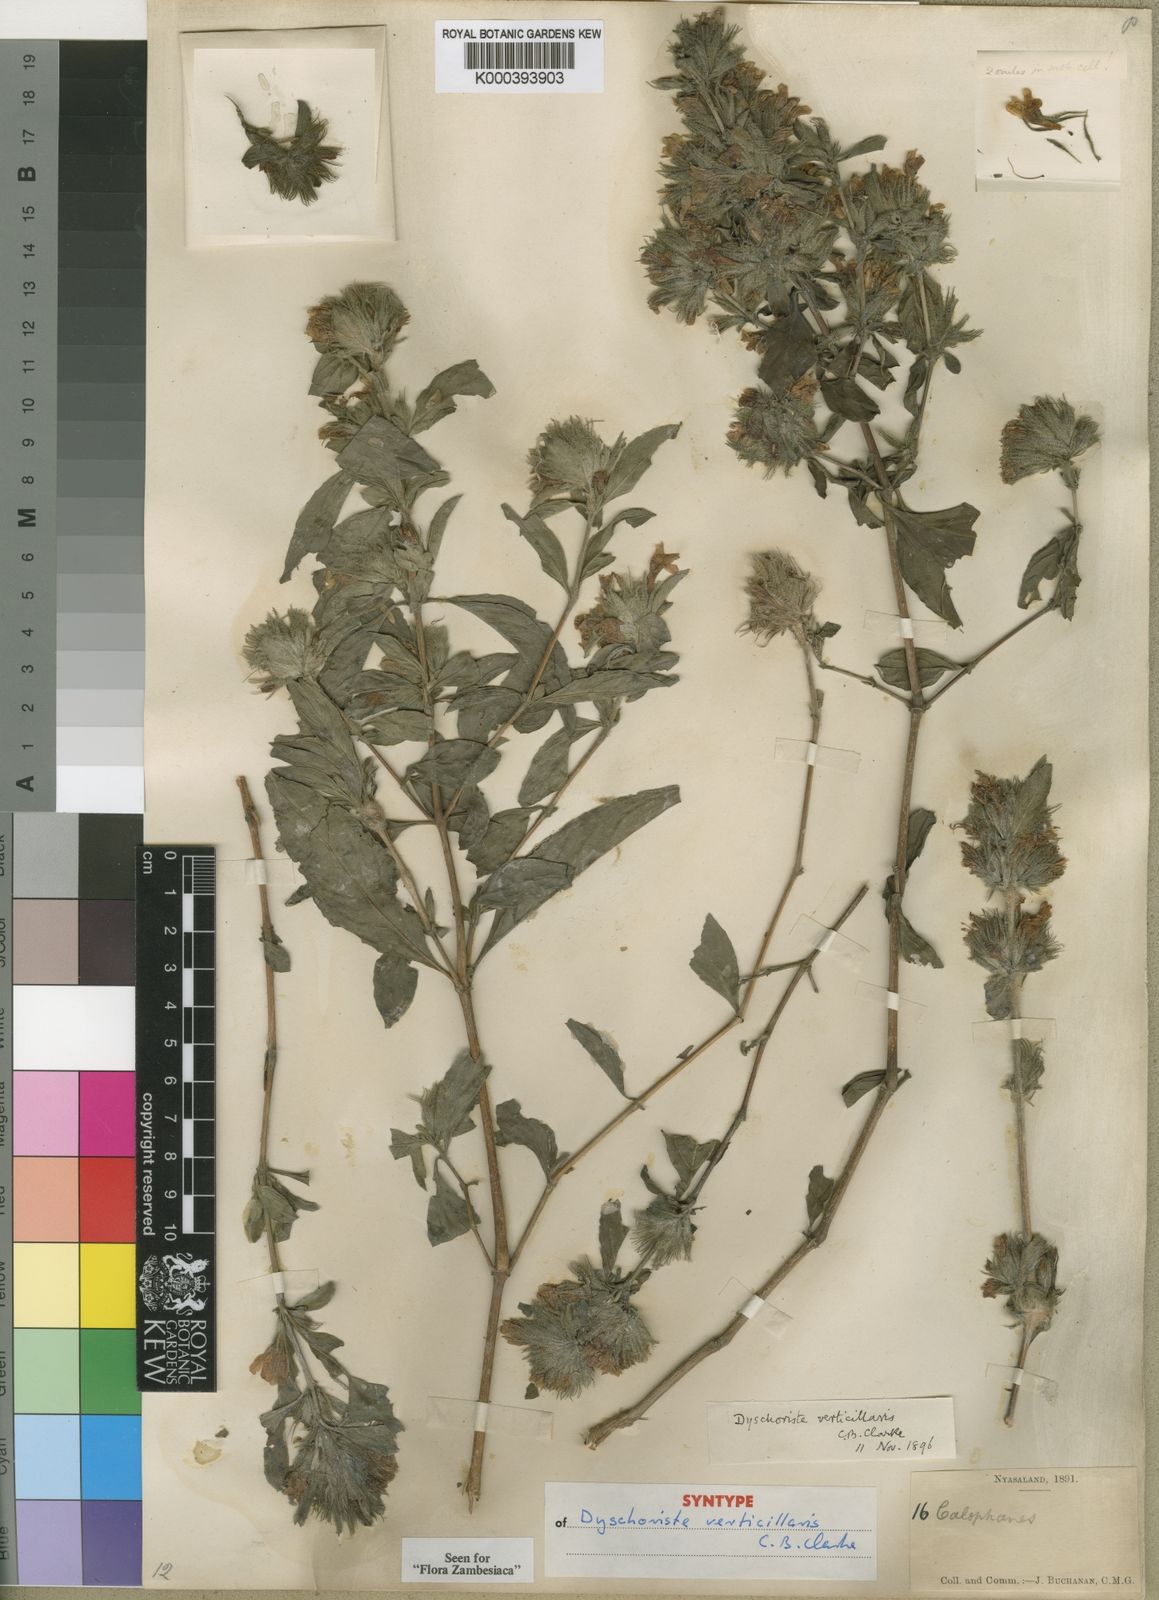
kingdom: Plantae
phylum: Tracheophyta
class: Magnoliopsida
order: Lamiales
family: Acanthaceae
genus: Dyschoriste
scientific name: Dyschoriste trichocalyx
